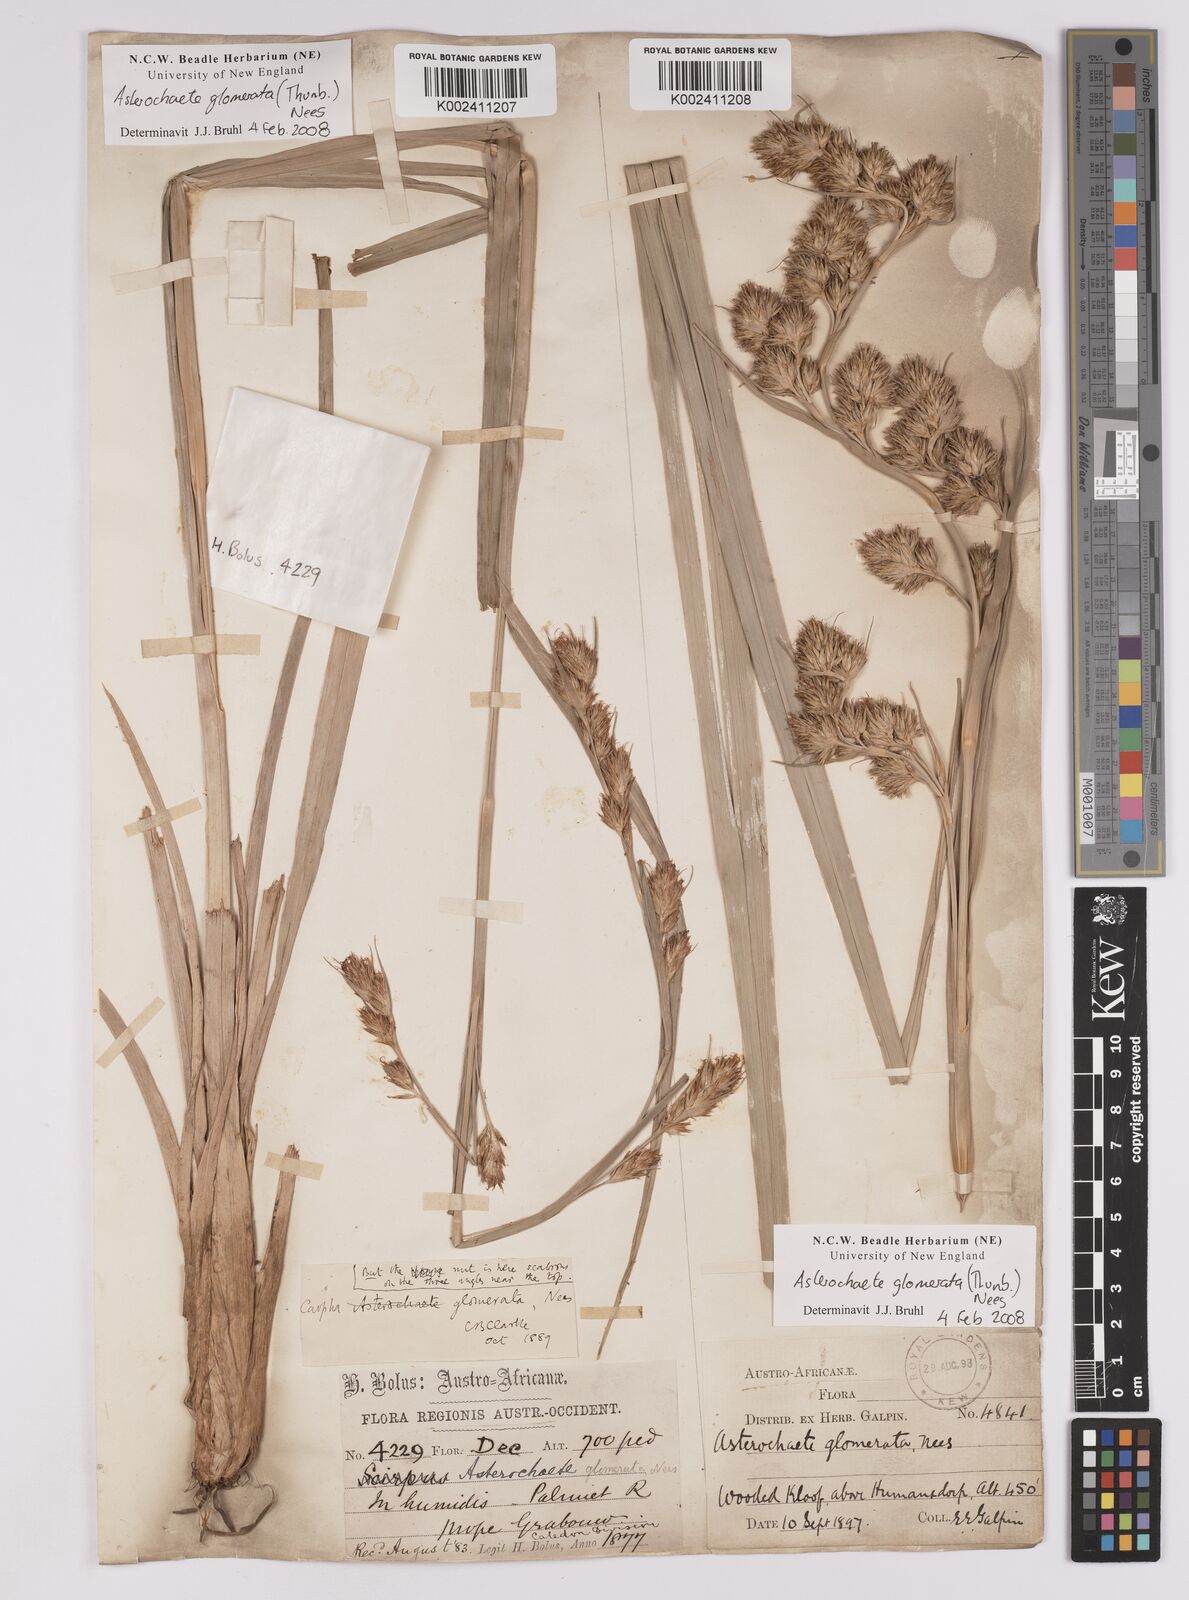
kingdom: Plantae
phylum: Tracheophyta
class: Liliopsida
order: Poales
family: Cyperaceae
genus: Carpha
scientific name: Carpha
